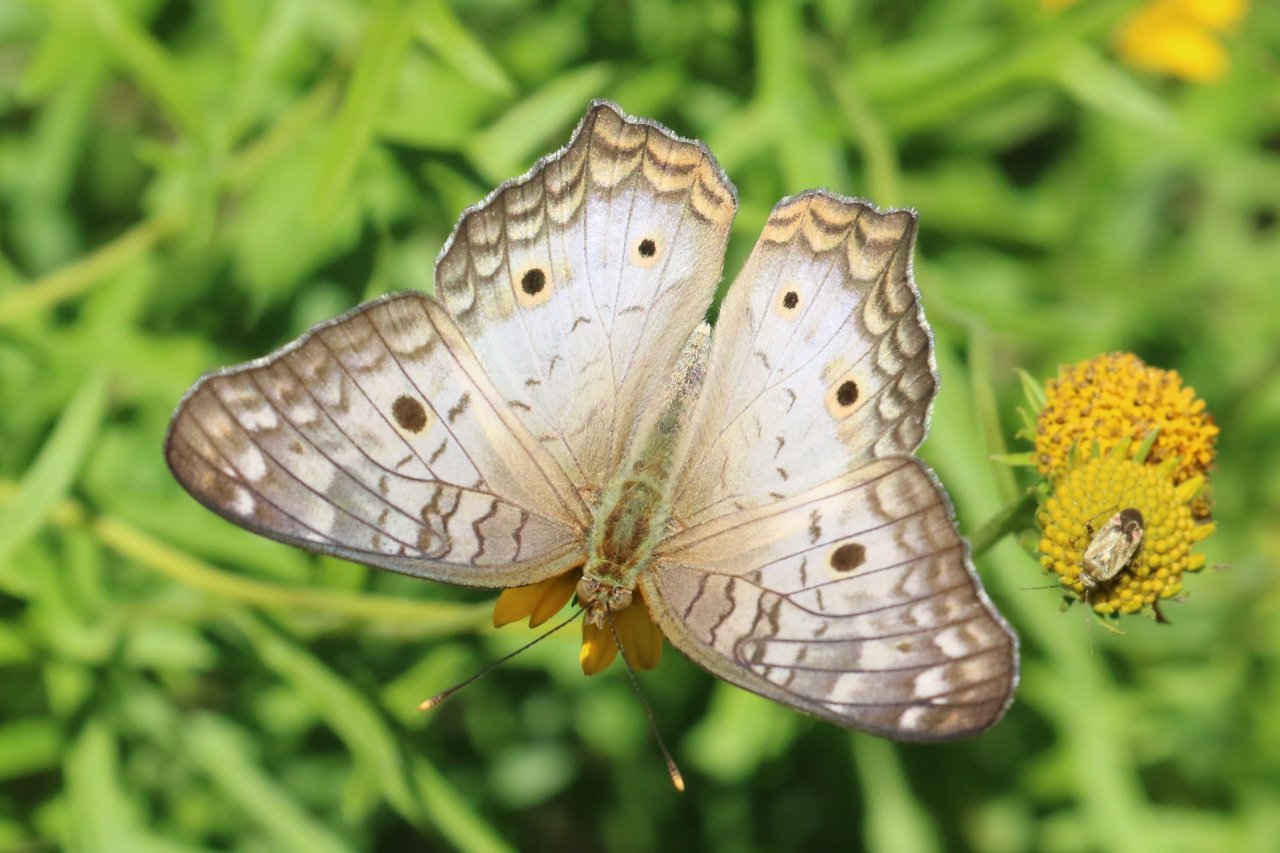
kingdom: Animalia
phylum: Arthropoda
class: Insecta
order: Lepidoptera
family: Nymphalidae
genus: Anartia
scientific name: Anartia jatrophae
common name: White Peacock
